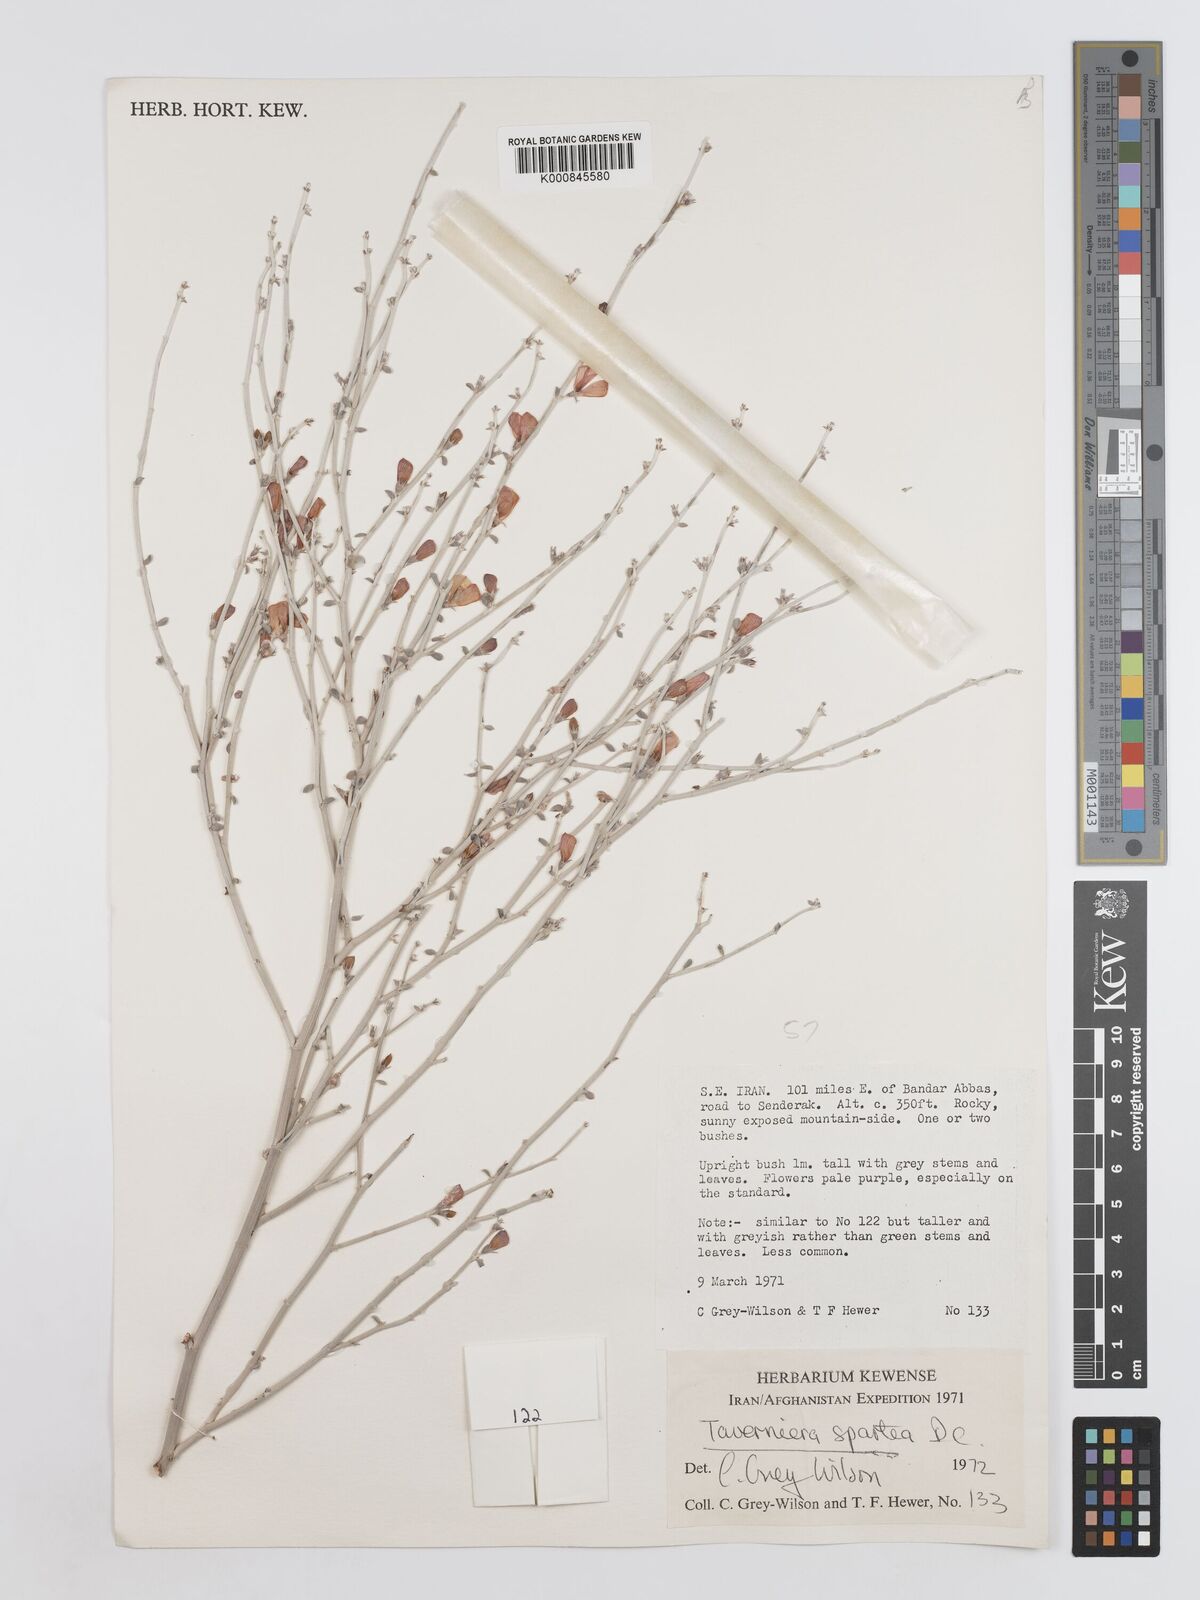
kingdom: Plantae
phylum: Tracheophyta
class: Magnoliopsida
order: Fabales
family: Fabaceae
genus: Taverniera
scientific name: Taverniera spartea
